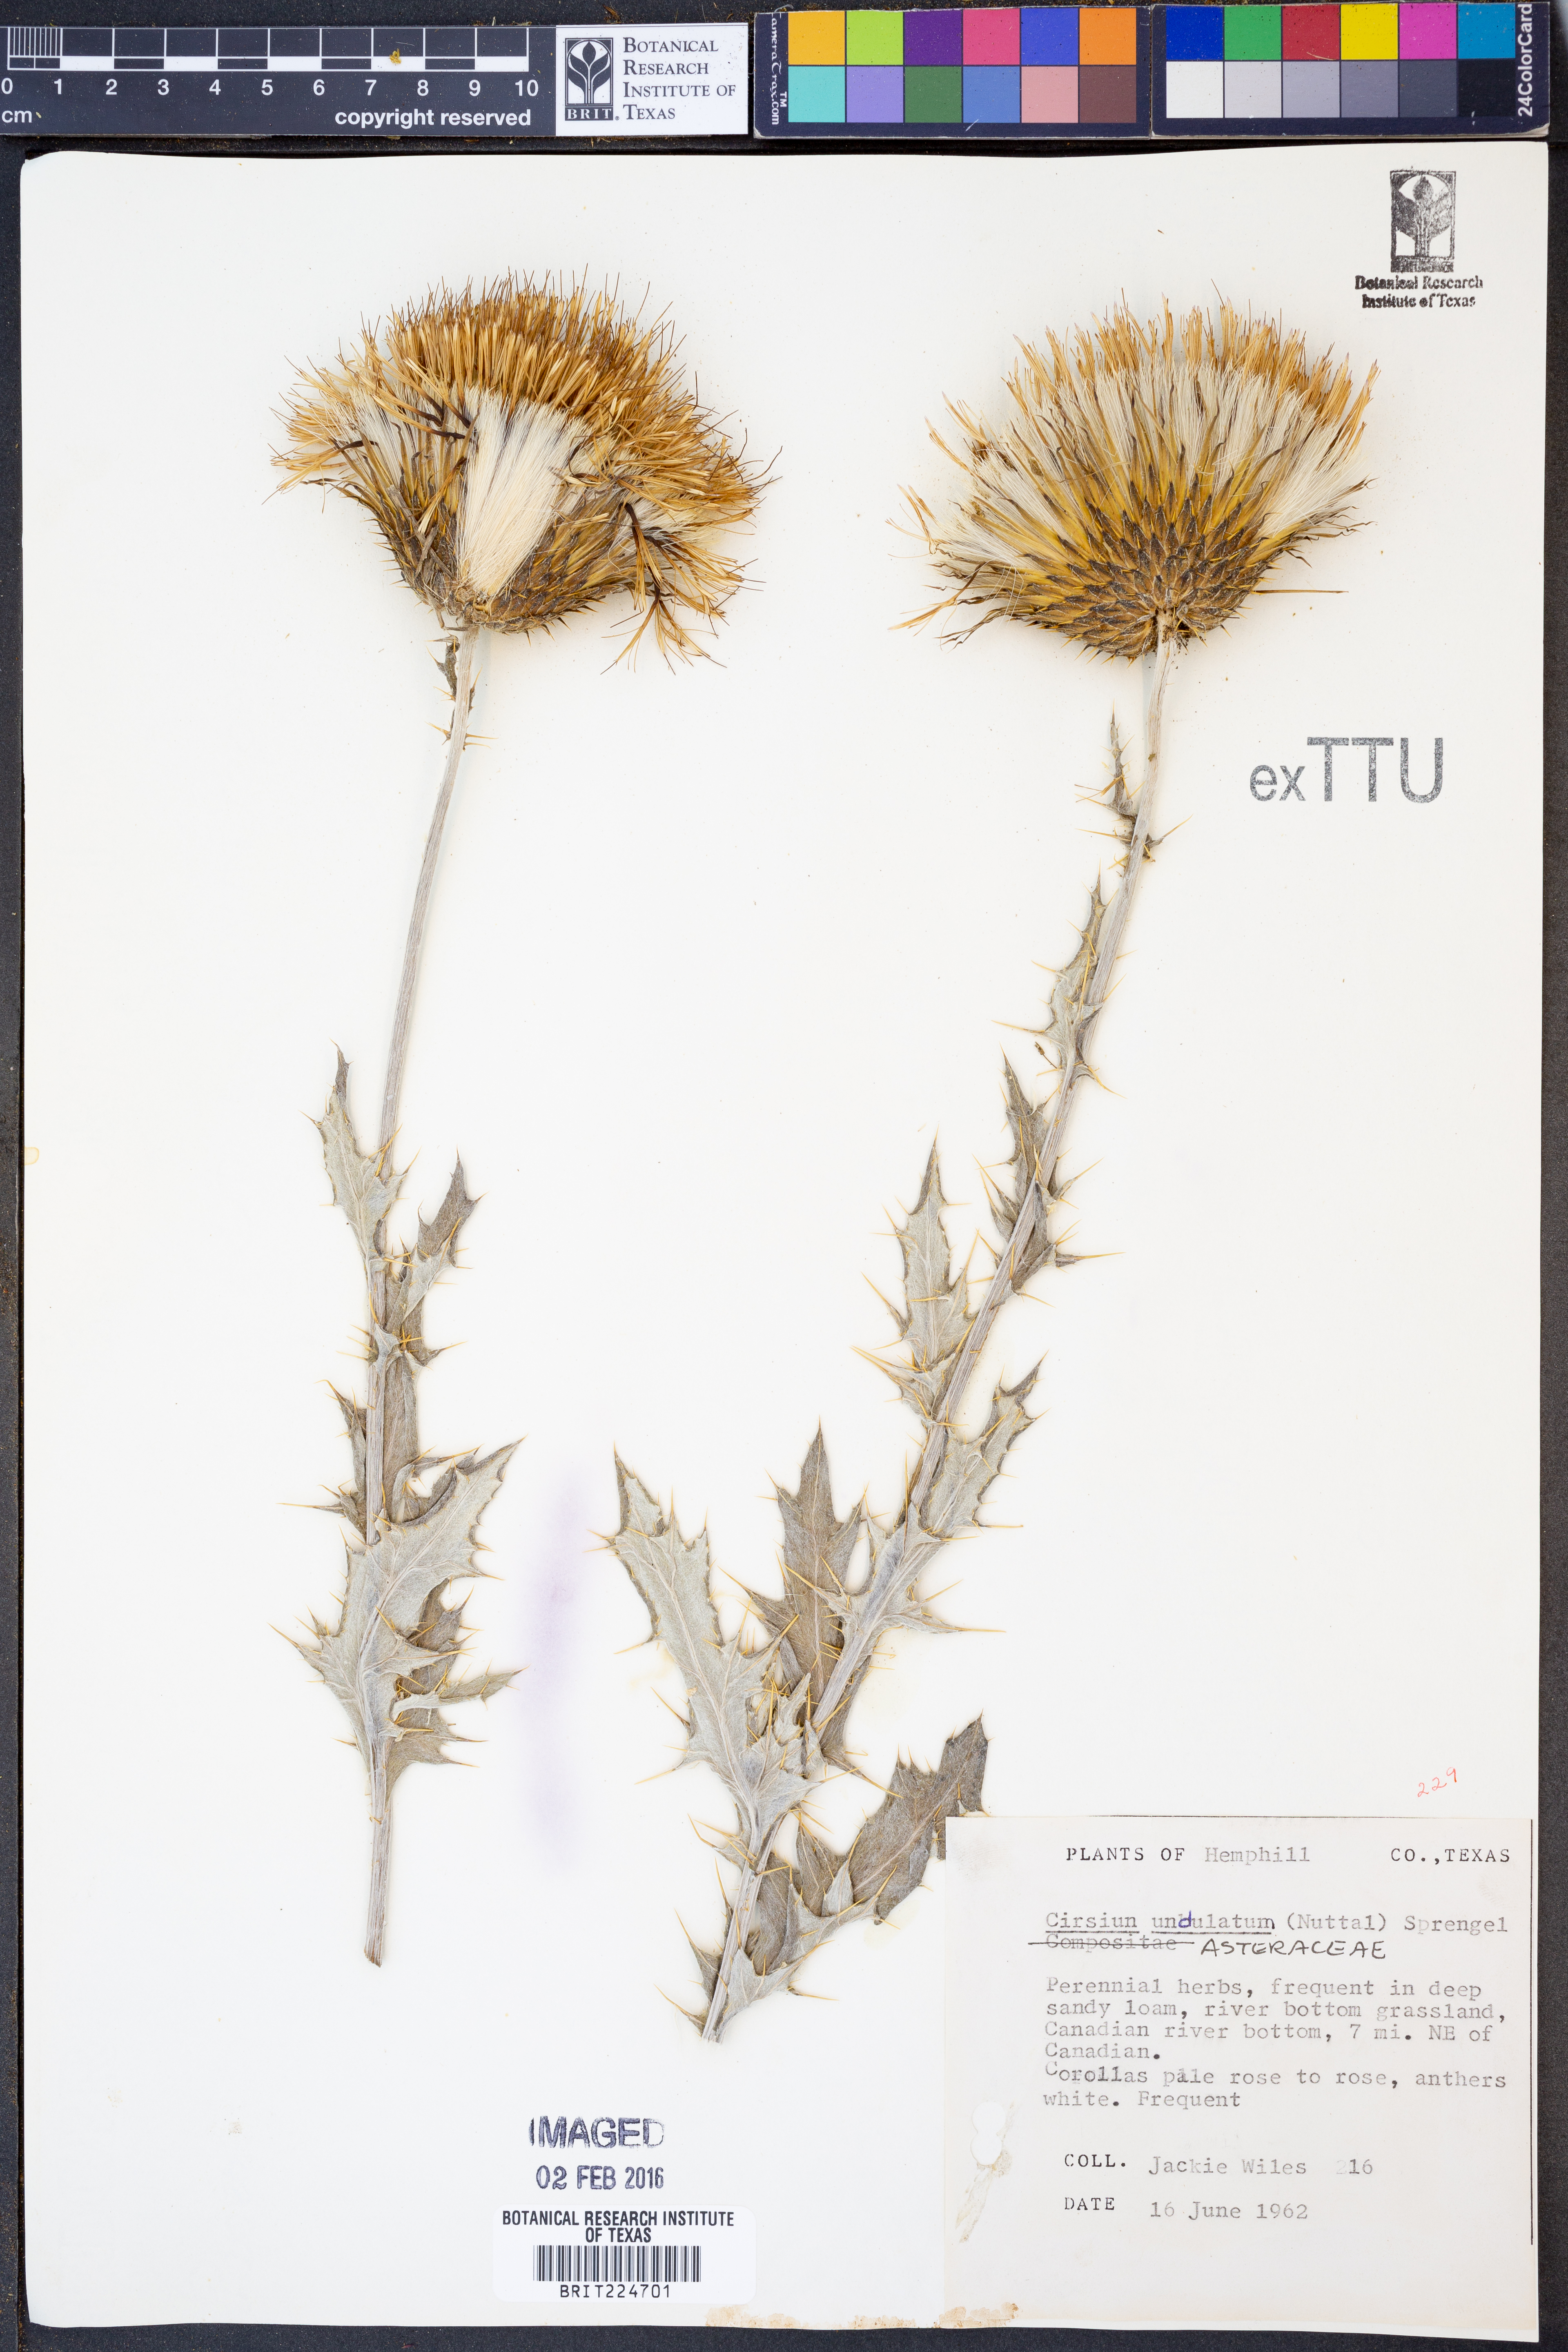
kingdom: Plantae
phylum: Tracheophyta
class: Magnoliopsida
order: Asterales
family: Asteraceae
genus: Cirsium
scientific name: Cirsium undulatum
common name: Pasture thistle
